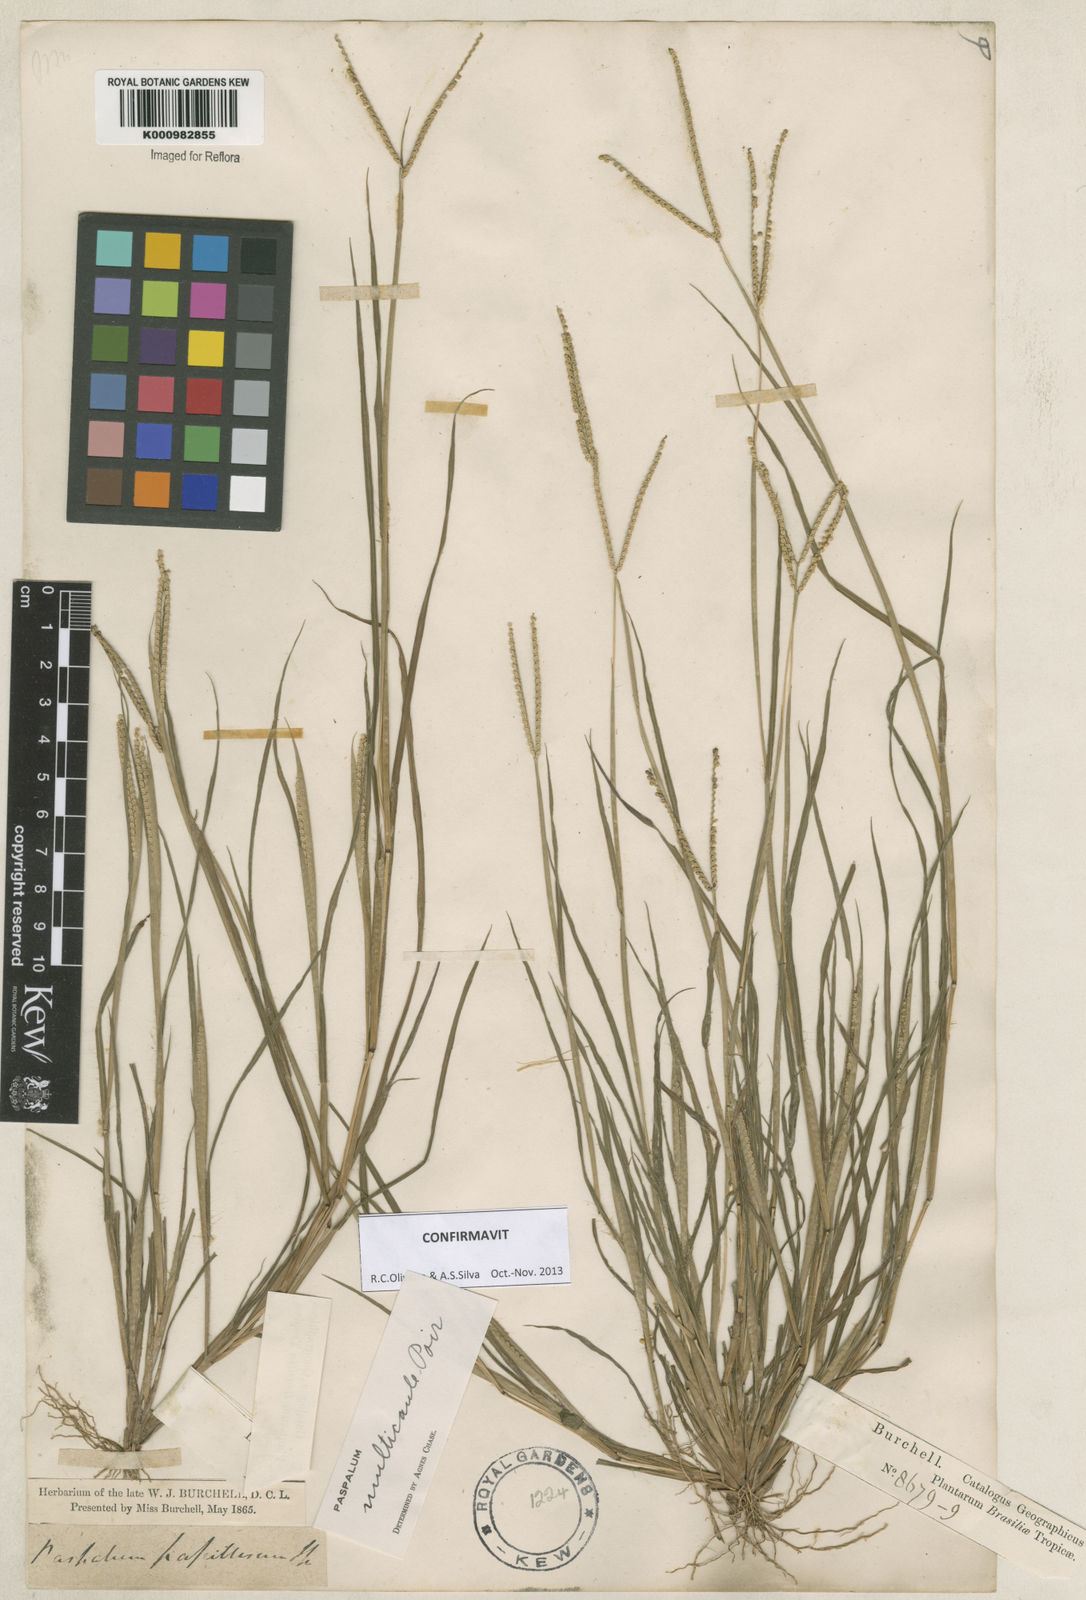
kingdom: Plantae
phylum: Tracheophyta
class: Liliopsida
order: Poales
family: Poaceae
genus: Paspalum
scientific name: Paspalum multicaule
